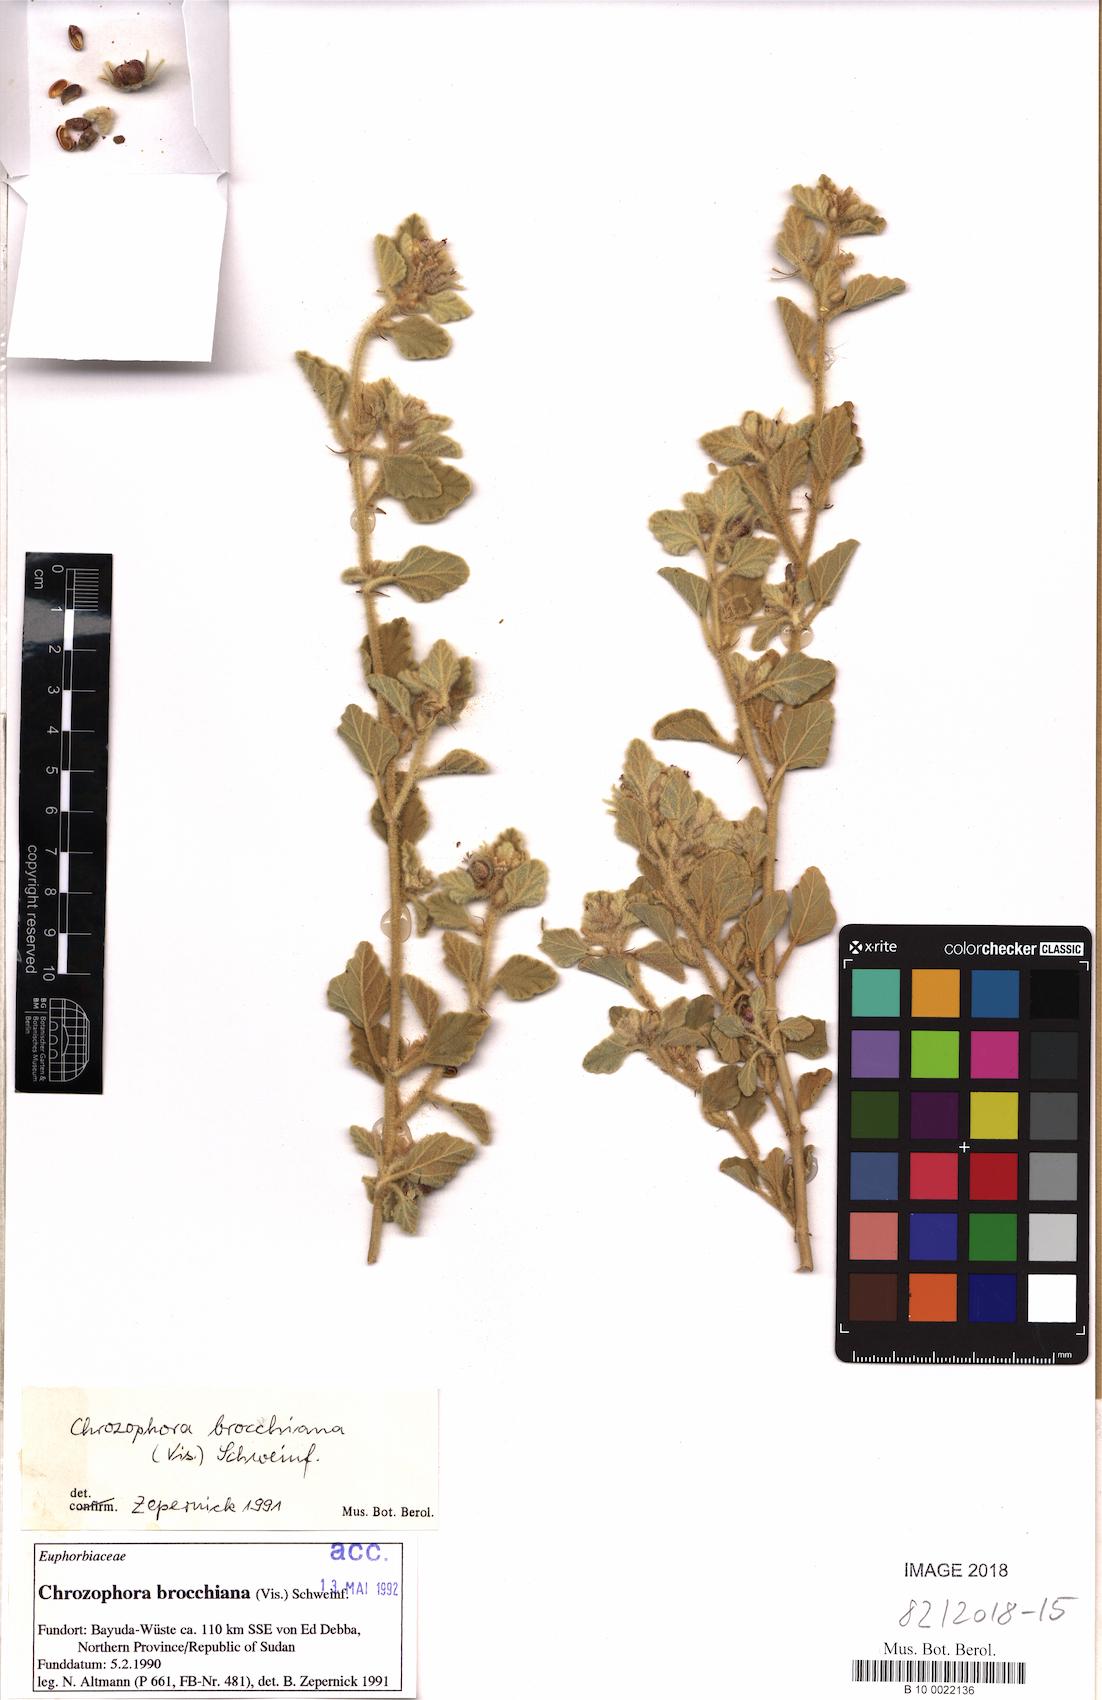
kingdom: Plantae
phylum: Tracheophyta
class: Magnoliopsida
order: Malpighiales
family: Euphorbiaceae
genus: Chrozophora
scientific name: Chrozophora brocchiana
